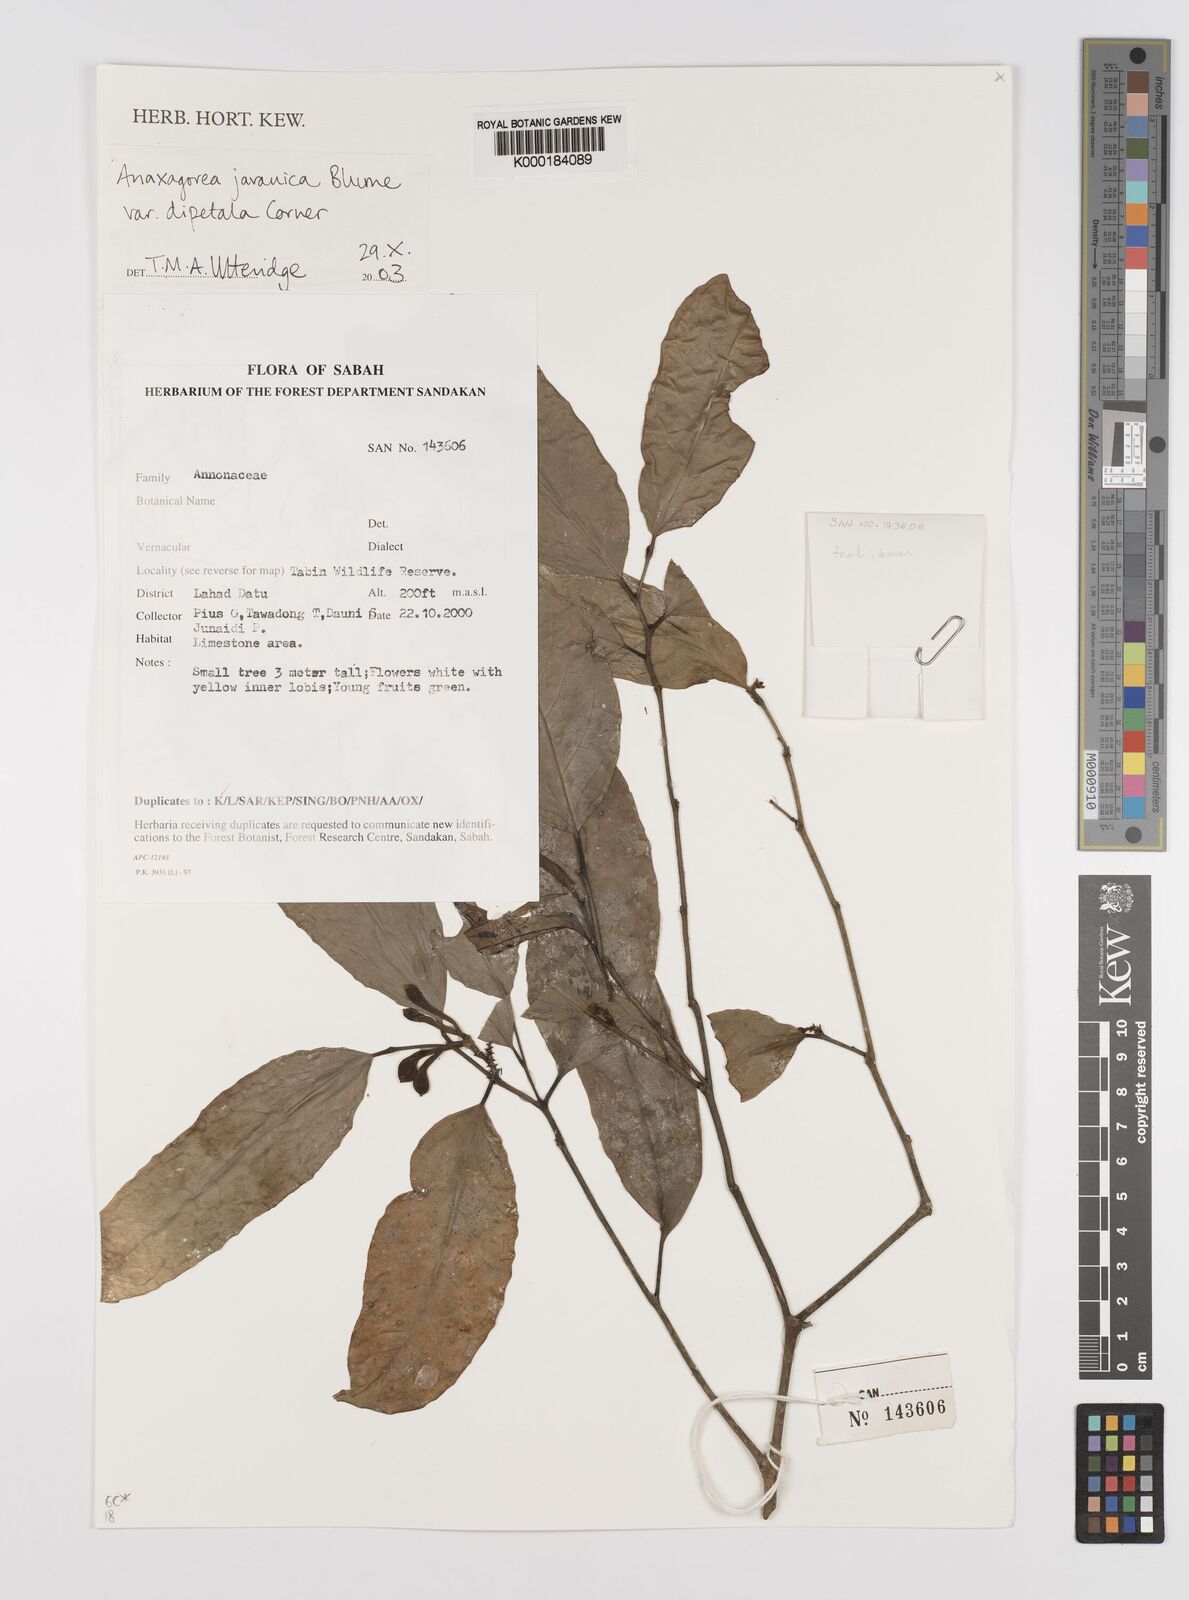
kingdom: Plantae
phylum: Tracheophyta
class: Magnoliopsida
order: Magnoliales
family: Annonaceae
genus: Anaxagorea
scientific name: Anaxagorea javanica
